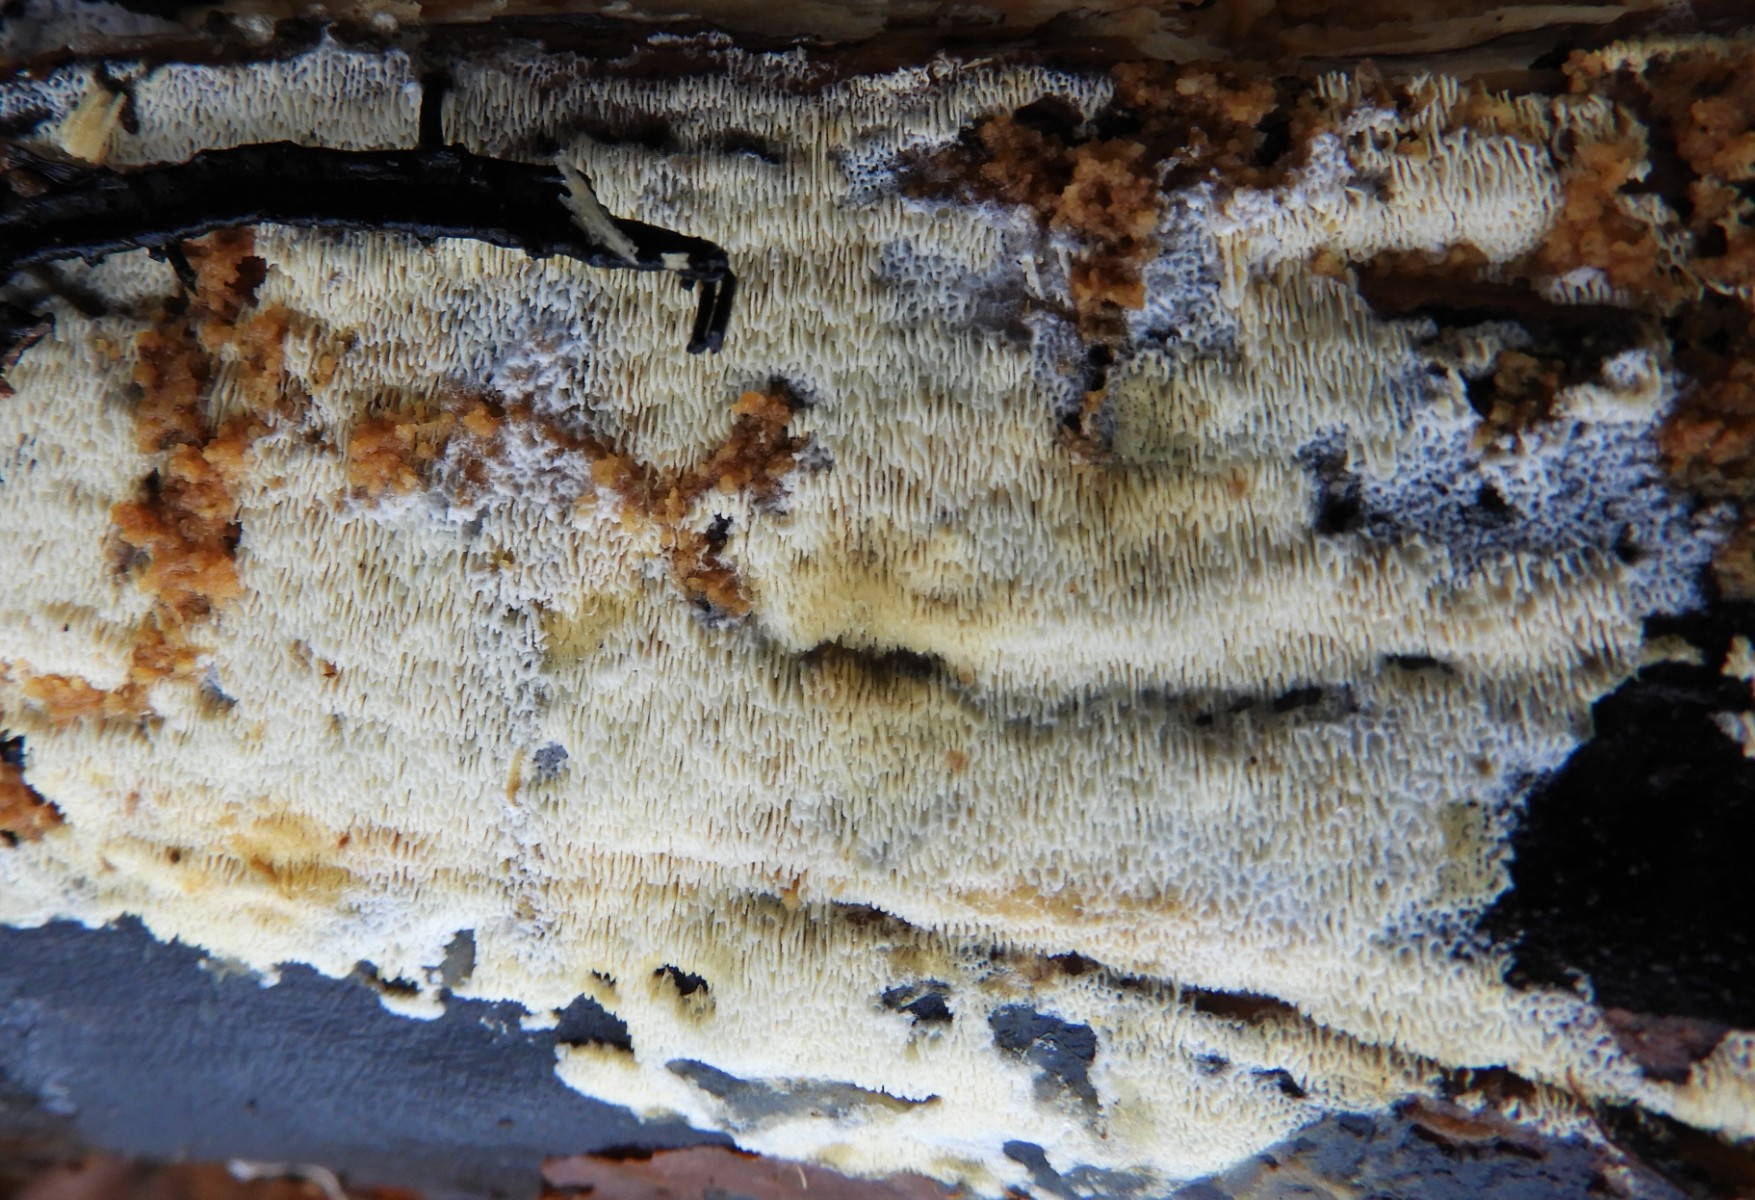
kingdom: Fungi
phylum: Basidiomycota
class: Agaricomycetes
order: Hymenochaetales
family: Schizoporaceae
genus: Xylodon
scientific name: Xylodon subtropicus
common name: labyrint-tandsvamp
